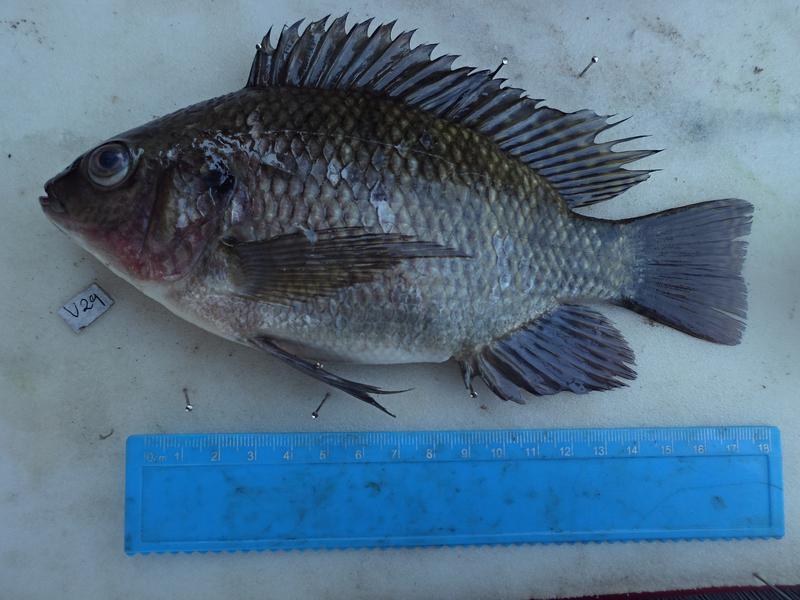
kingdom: Animalia
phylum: Chordata
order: Perciformes
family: Cichlidae
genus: Oreochromis
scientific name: Oreochromis niloticus
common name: Nile tilapia
